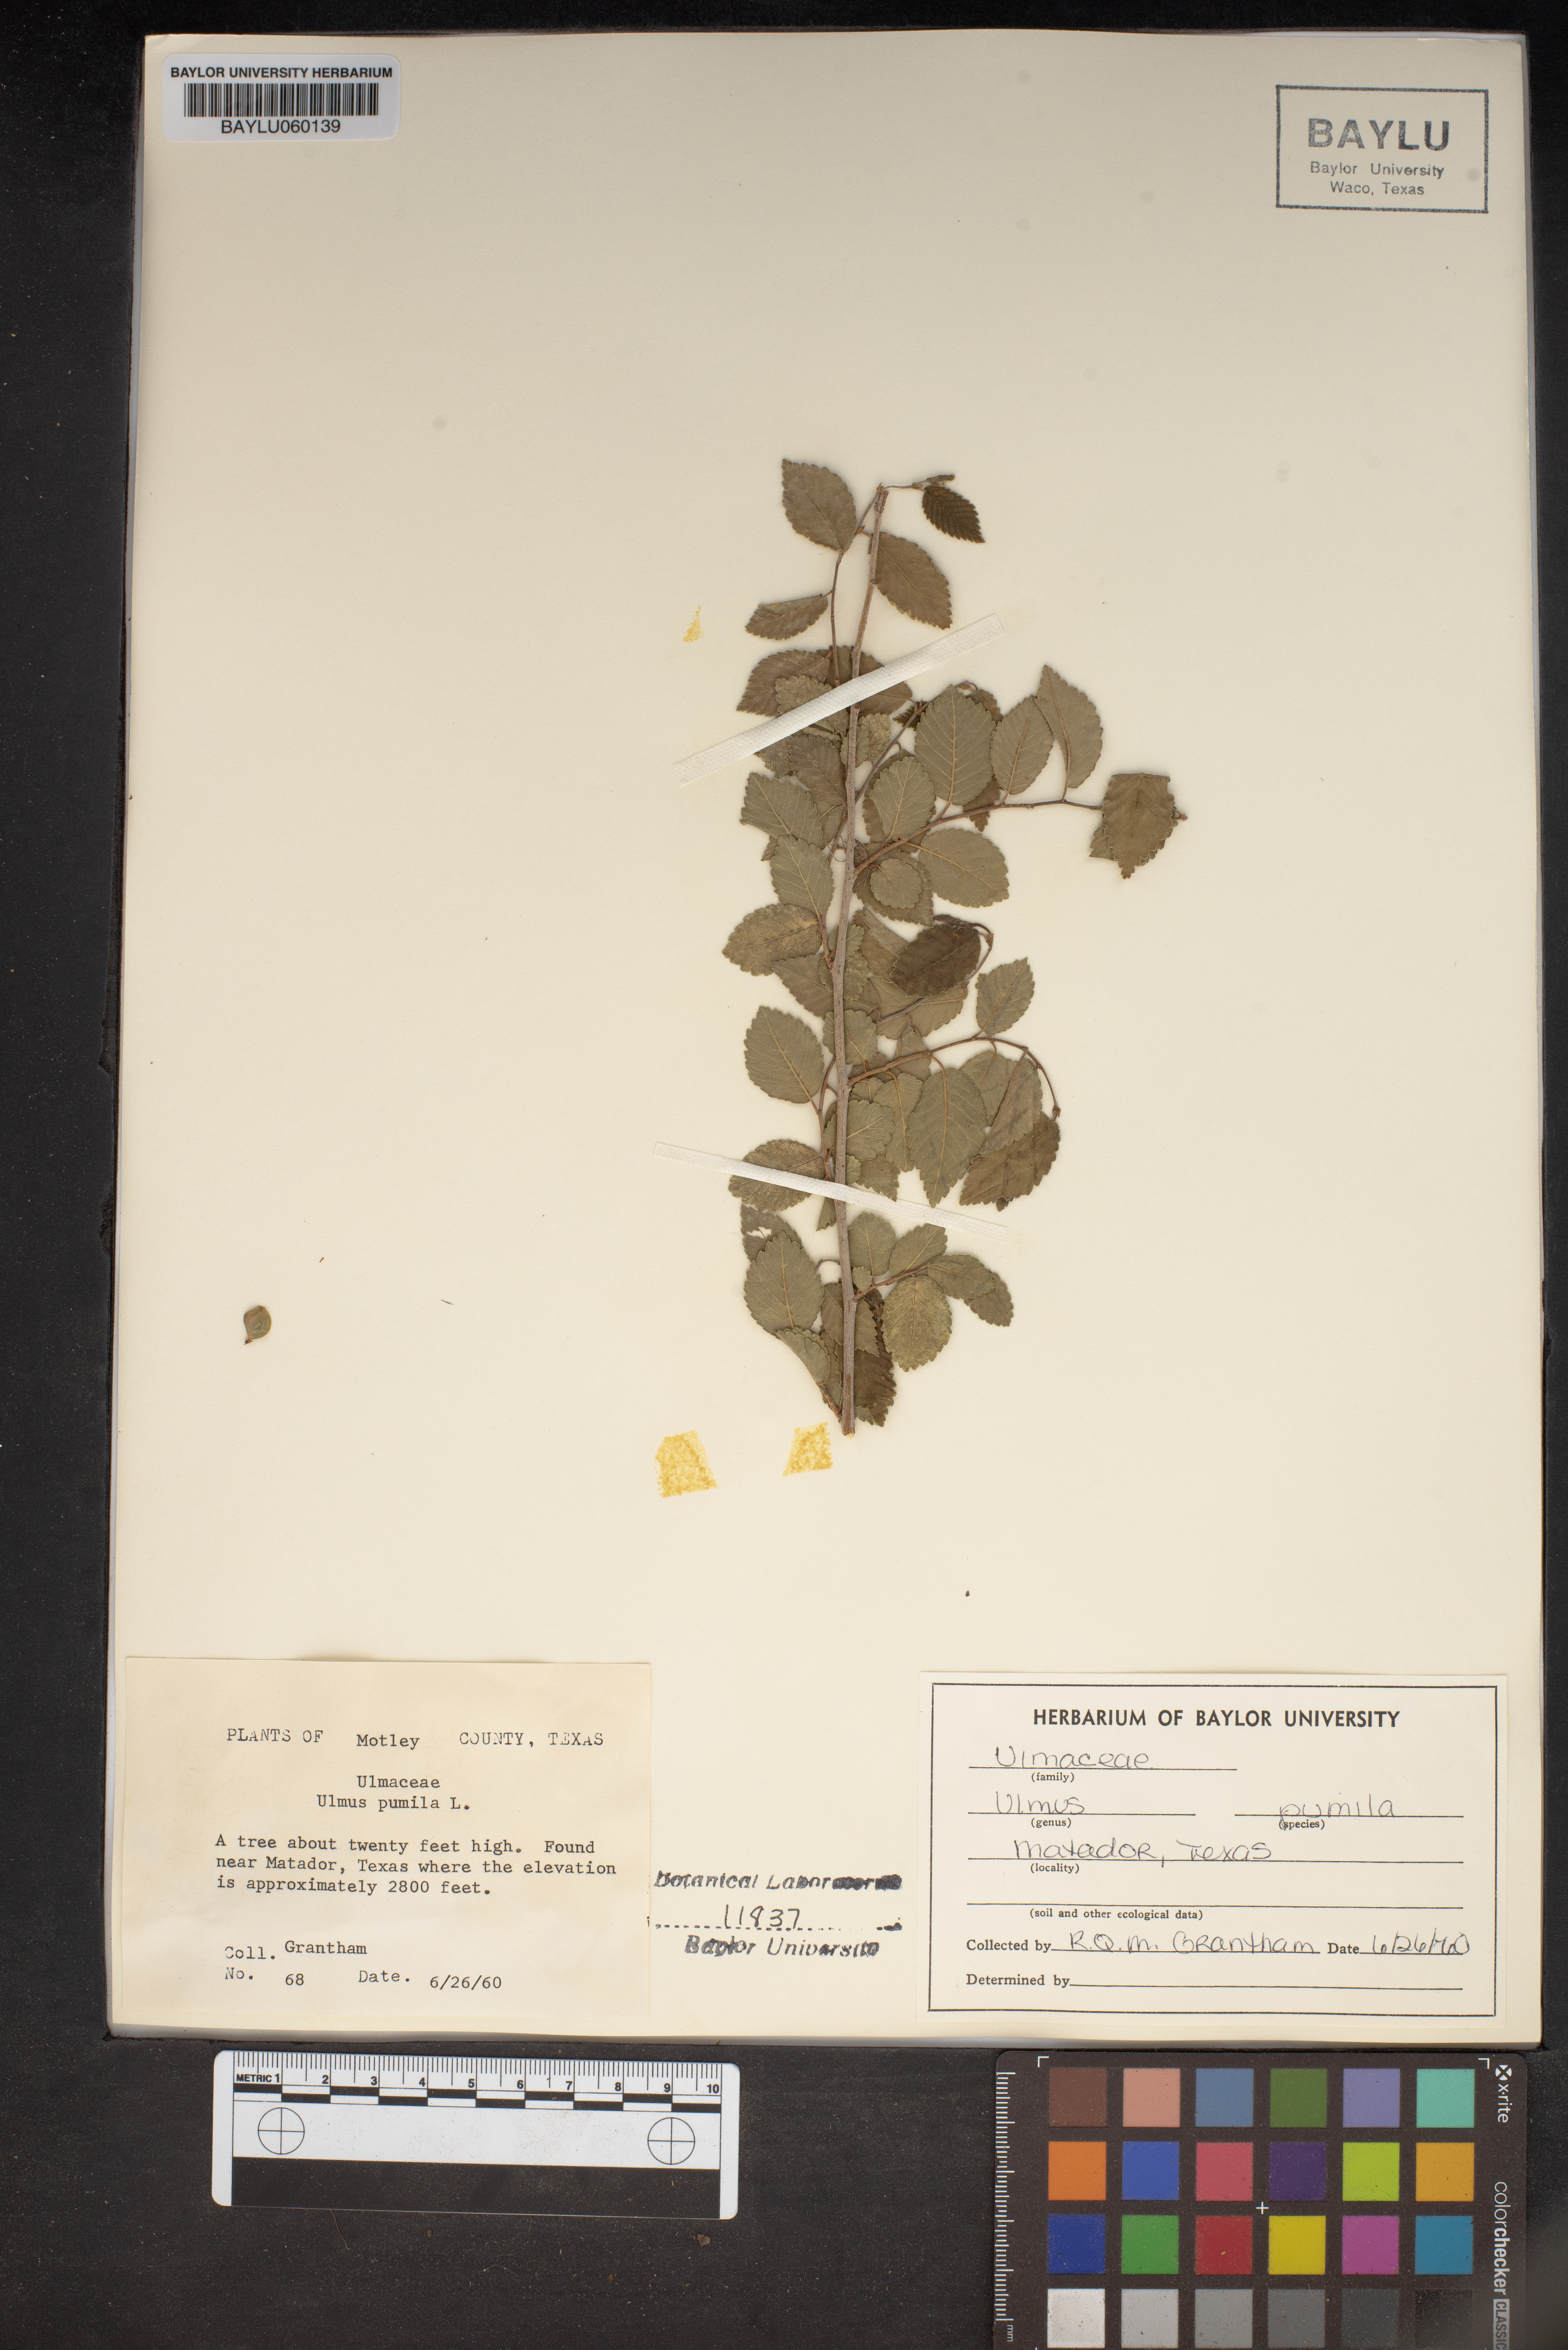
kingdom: Plantae
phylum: Tracheophyta
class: Magnoliopsida
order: Rosales
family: Ulmaceae
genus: Ulmus
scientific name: Ulmus pumila
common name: Siberian elm
